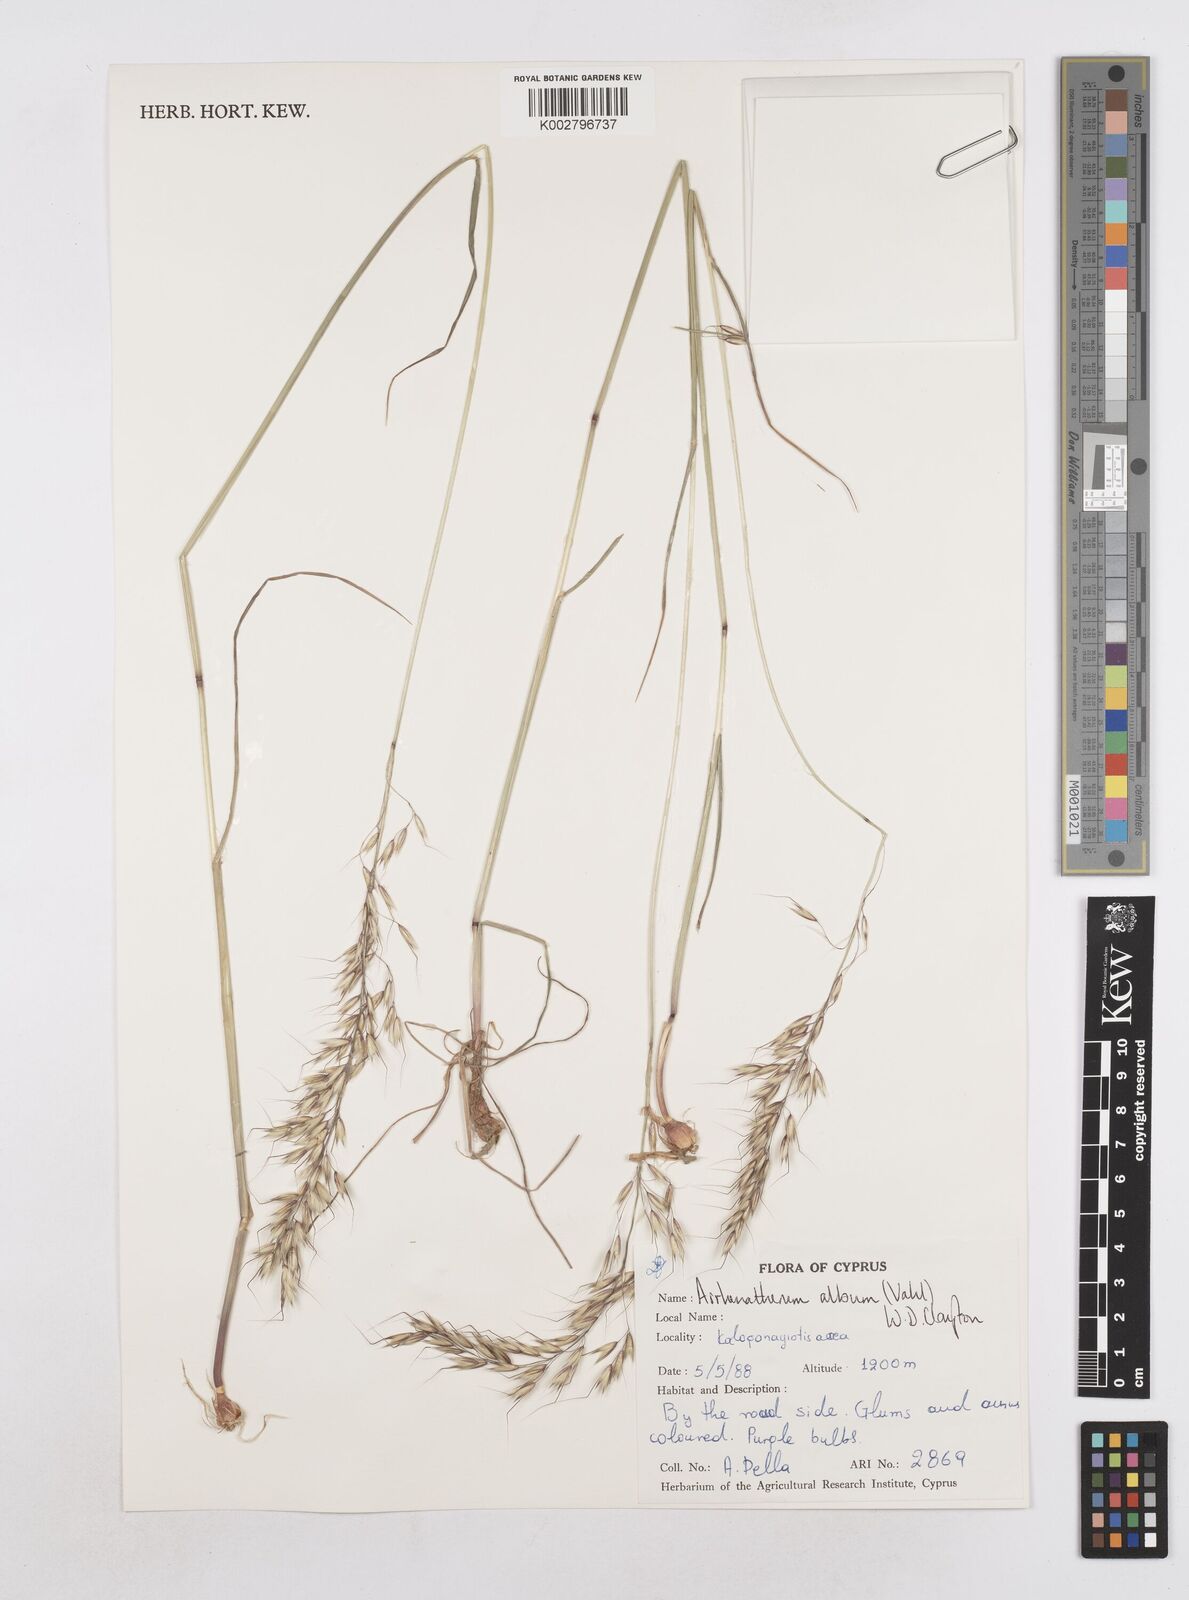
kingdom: Plantae
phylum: Tracheophyta
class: Liliopsida
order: Poales
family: Poaceae
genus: Arrhenatherum
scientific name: Arrhenatherum album
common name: Tall oat grass
